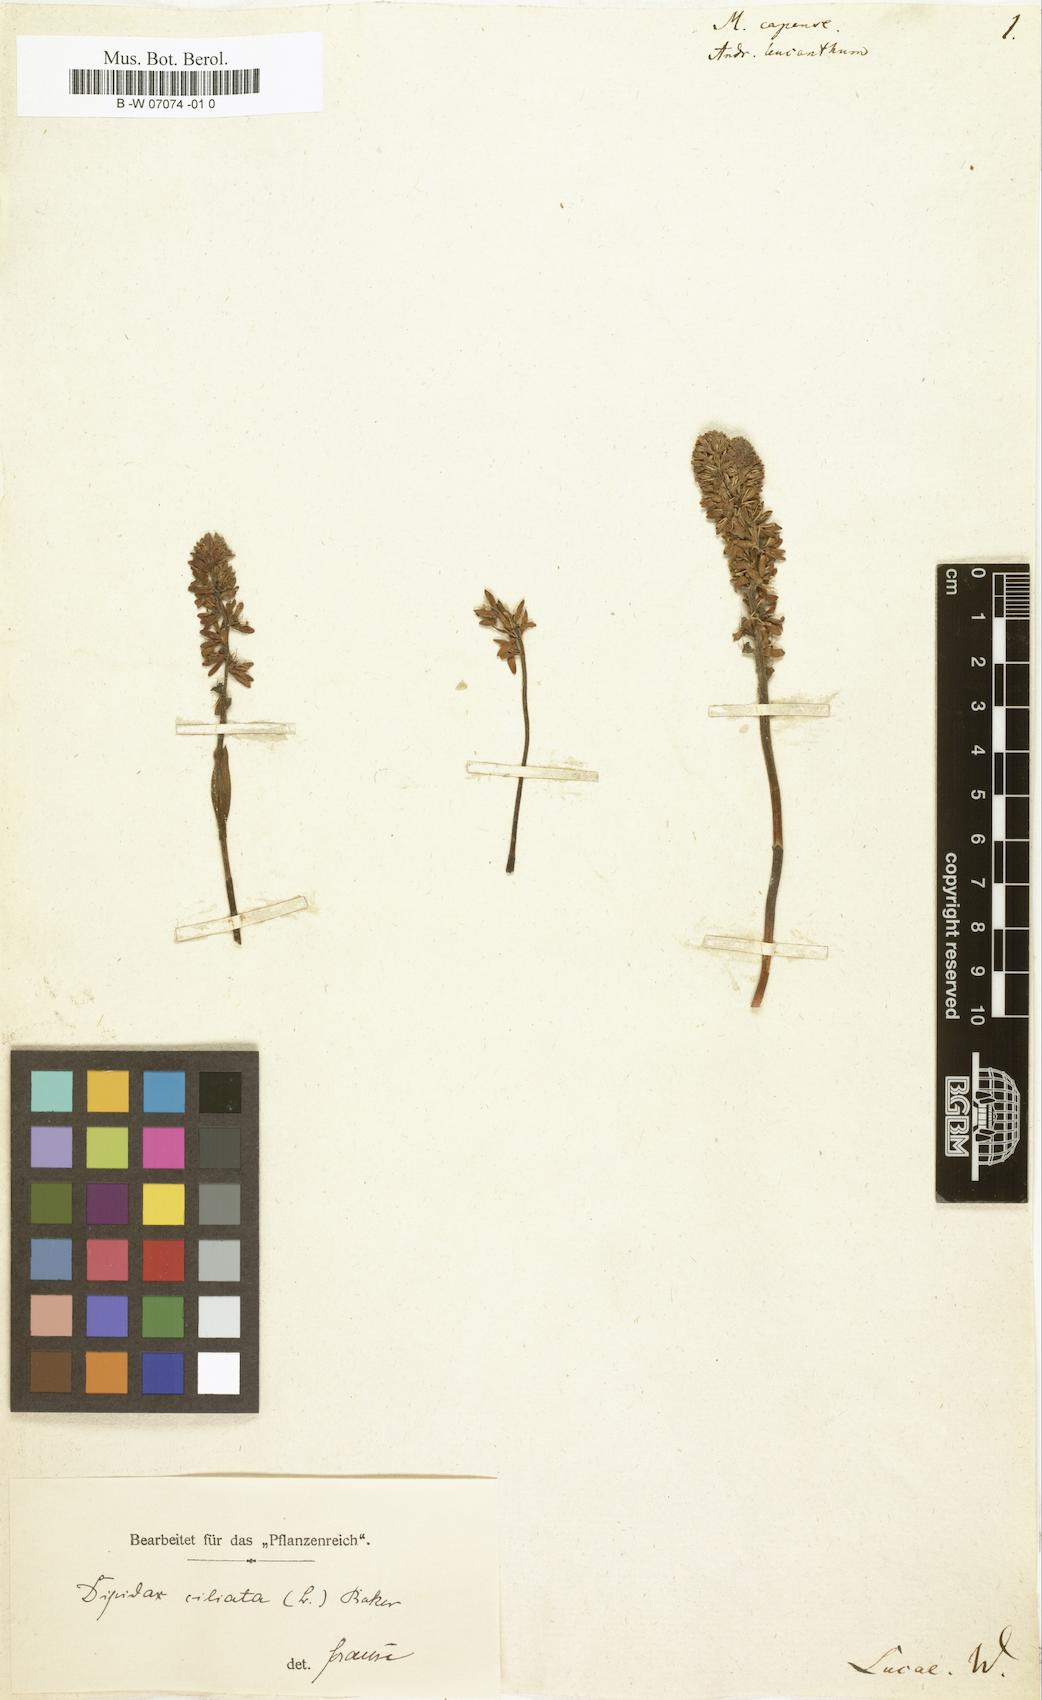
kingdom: Plantae
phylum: Tracheophyta
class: Liliopsida
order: Liliales
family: Colchicaceae
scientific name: Colchicaceae
